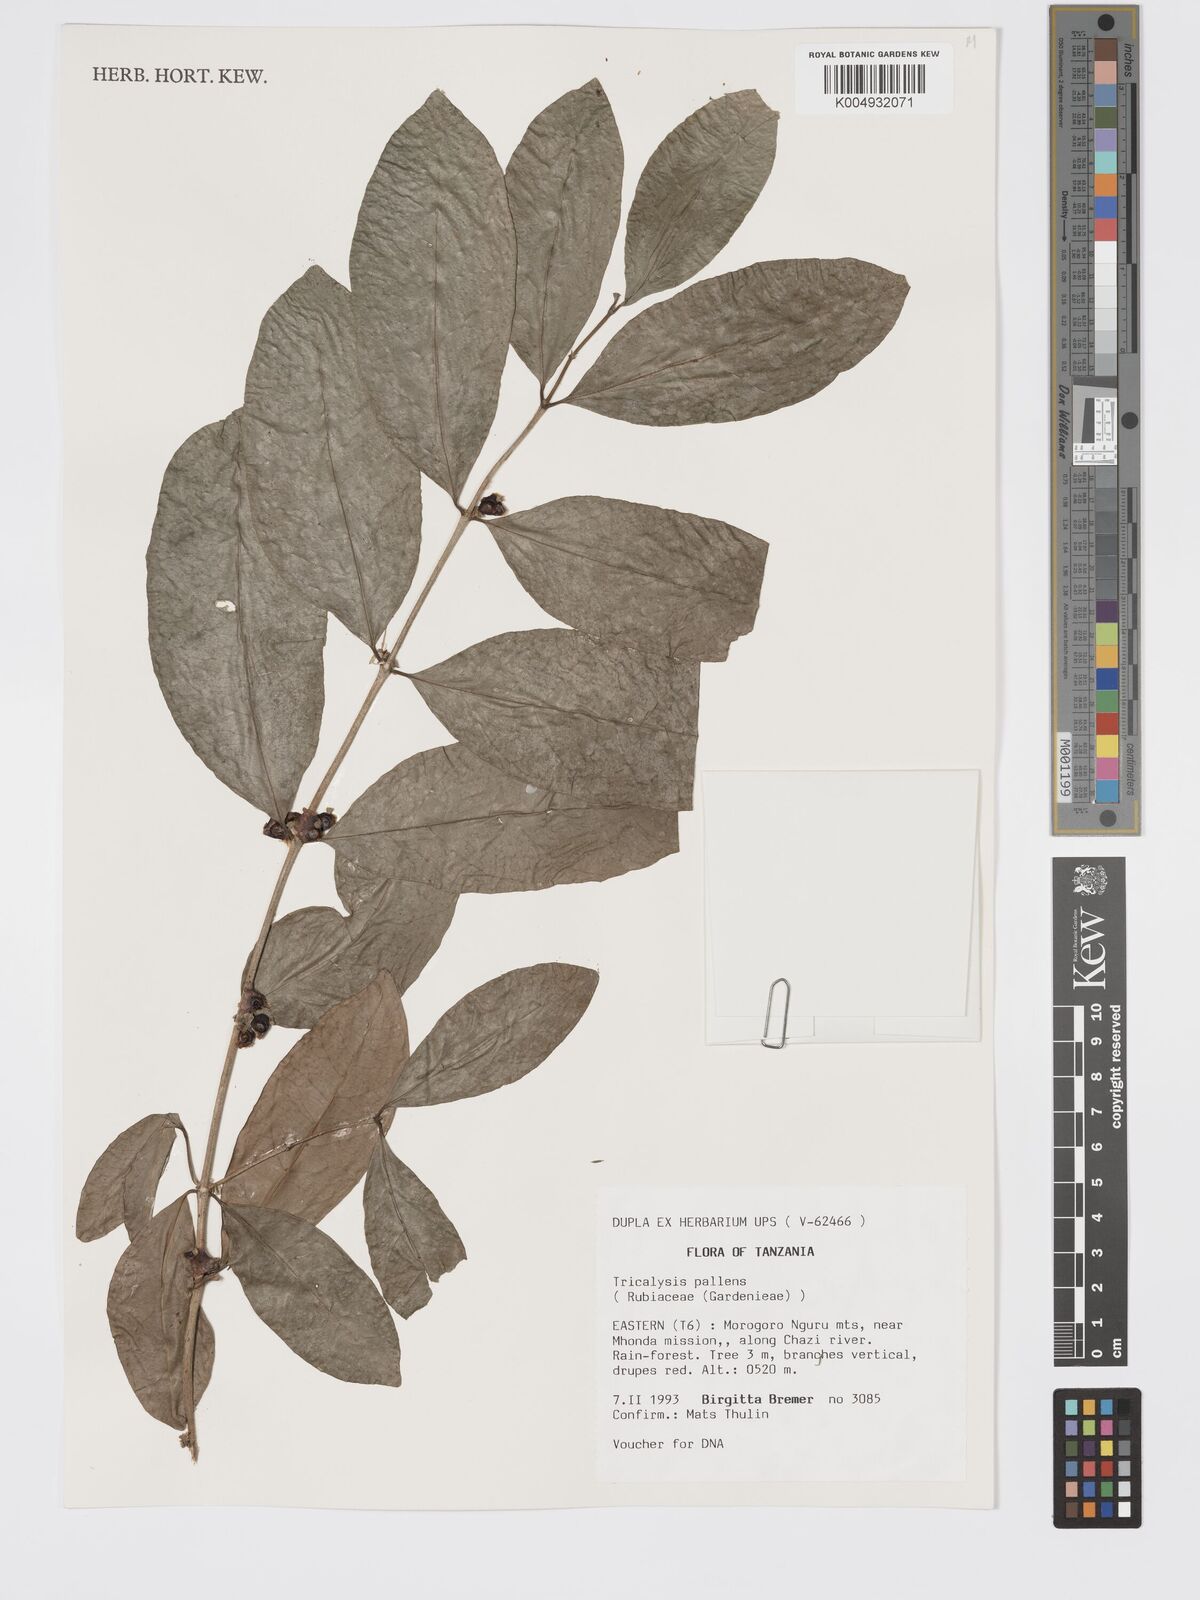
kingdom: Plantae
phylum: Tracheophyta
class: Magnoliopsida
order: Gentianales
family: Rubiaceae
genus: Tricalysia
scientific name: Tricalysia pallens
